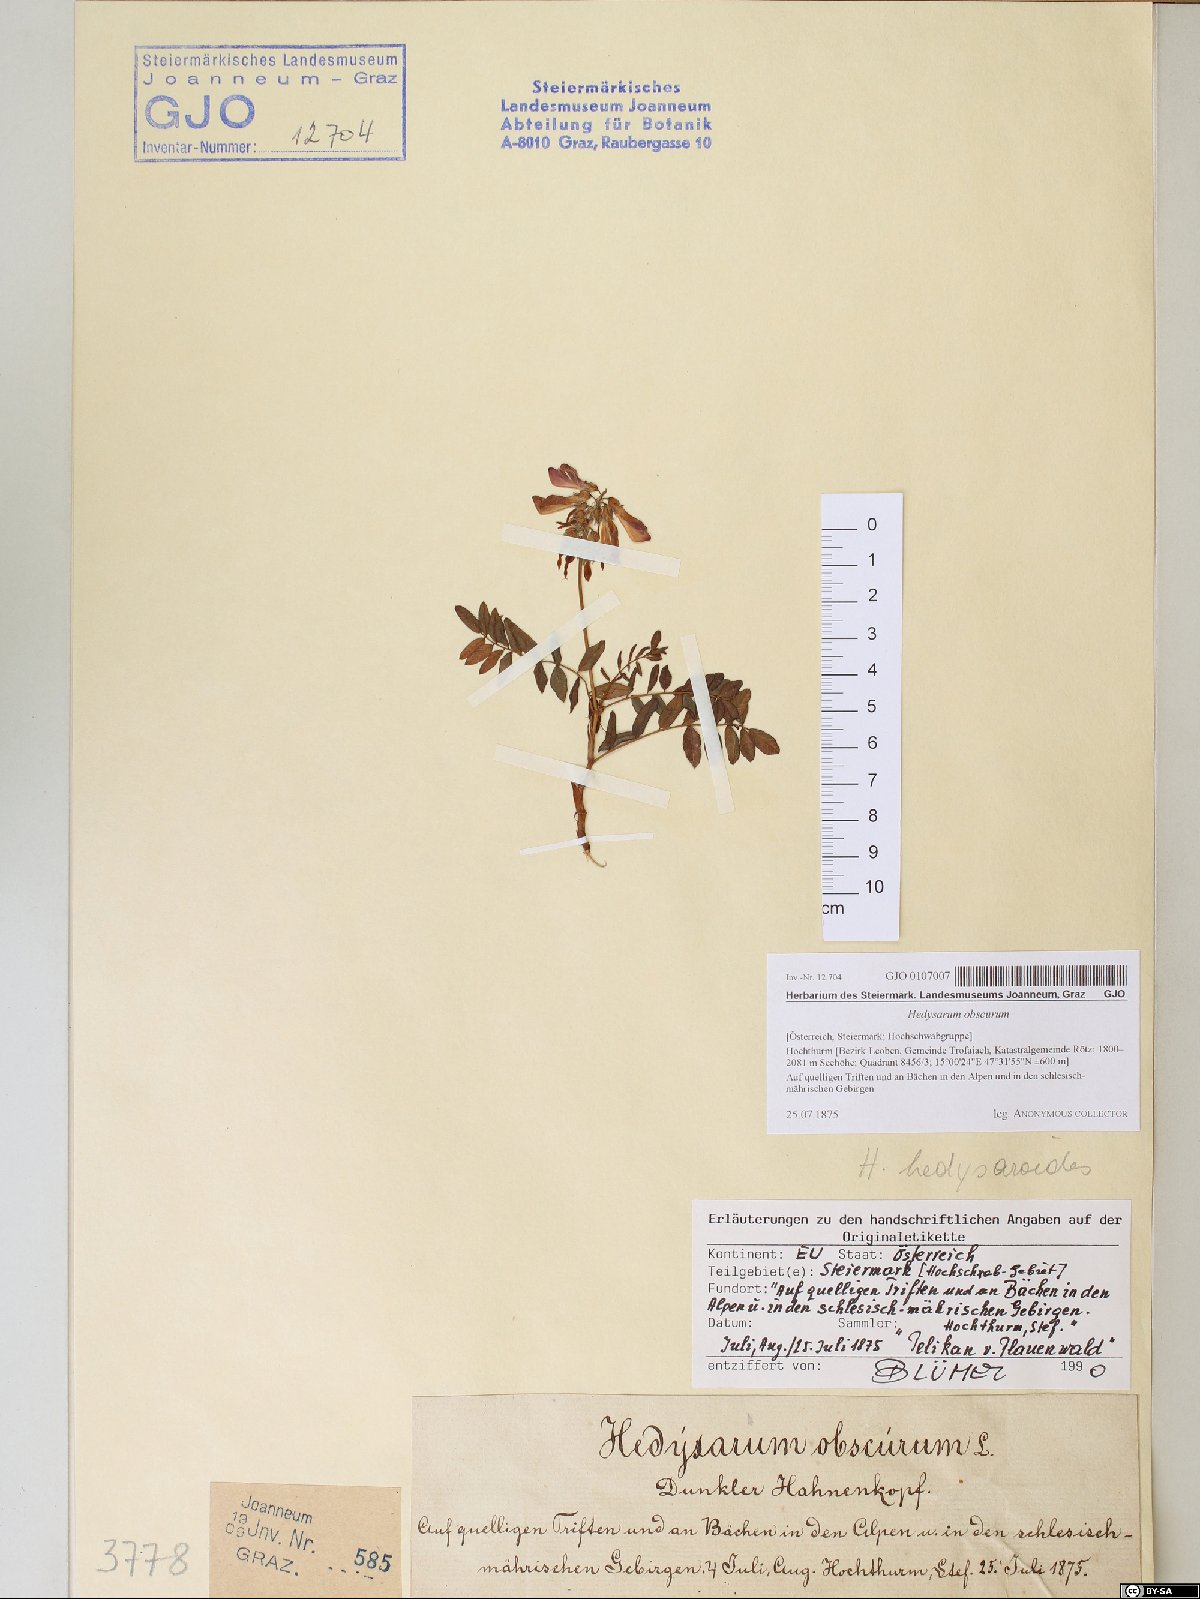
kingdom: Plantae
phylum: Tracheophyta
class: Magnoliopsida
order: Fabales
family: Fabaceae
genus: Hedysarum
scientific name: Hedysarum hedysaroides
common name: Alpine french-honeysuckle
